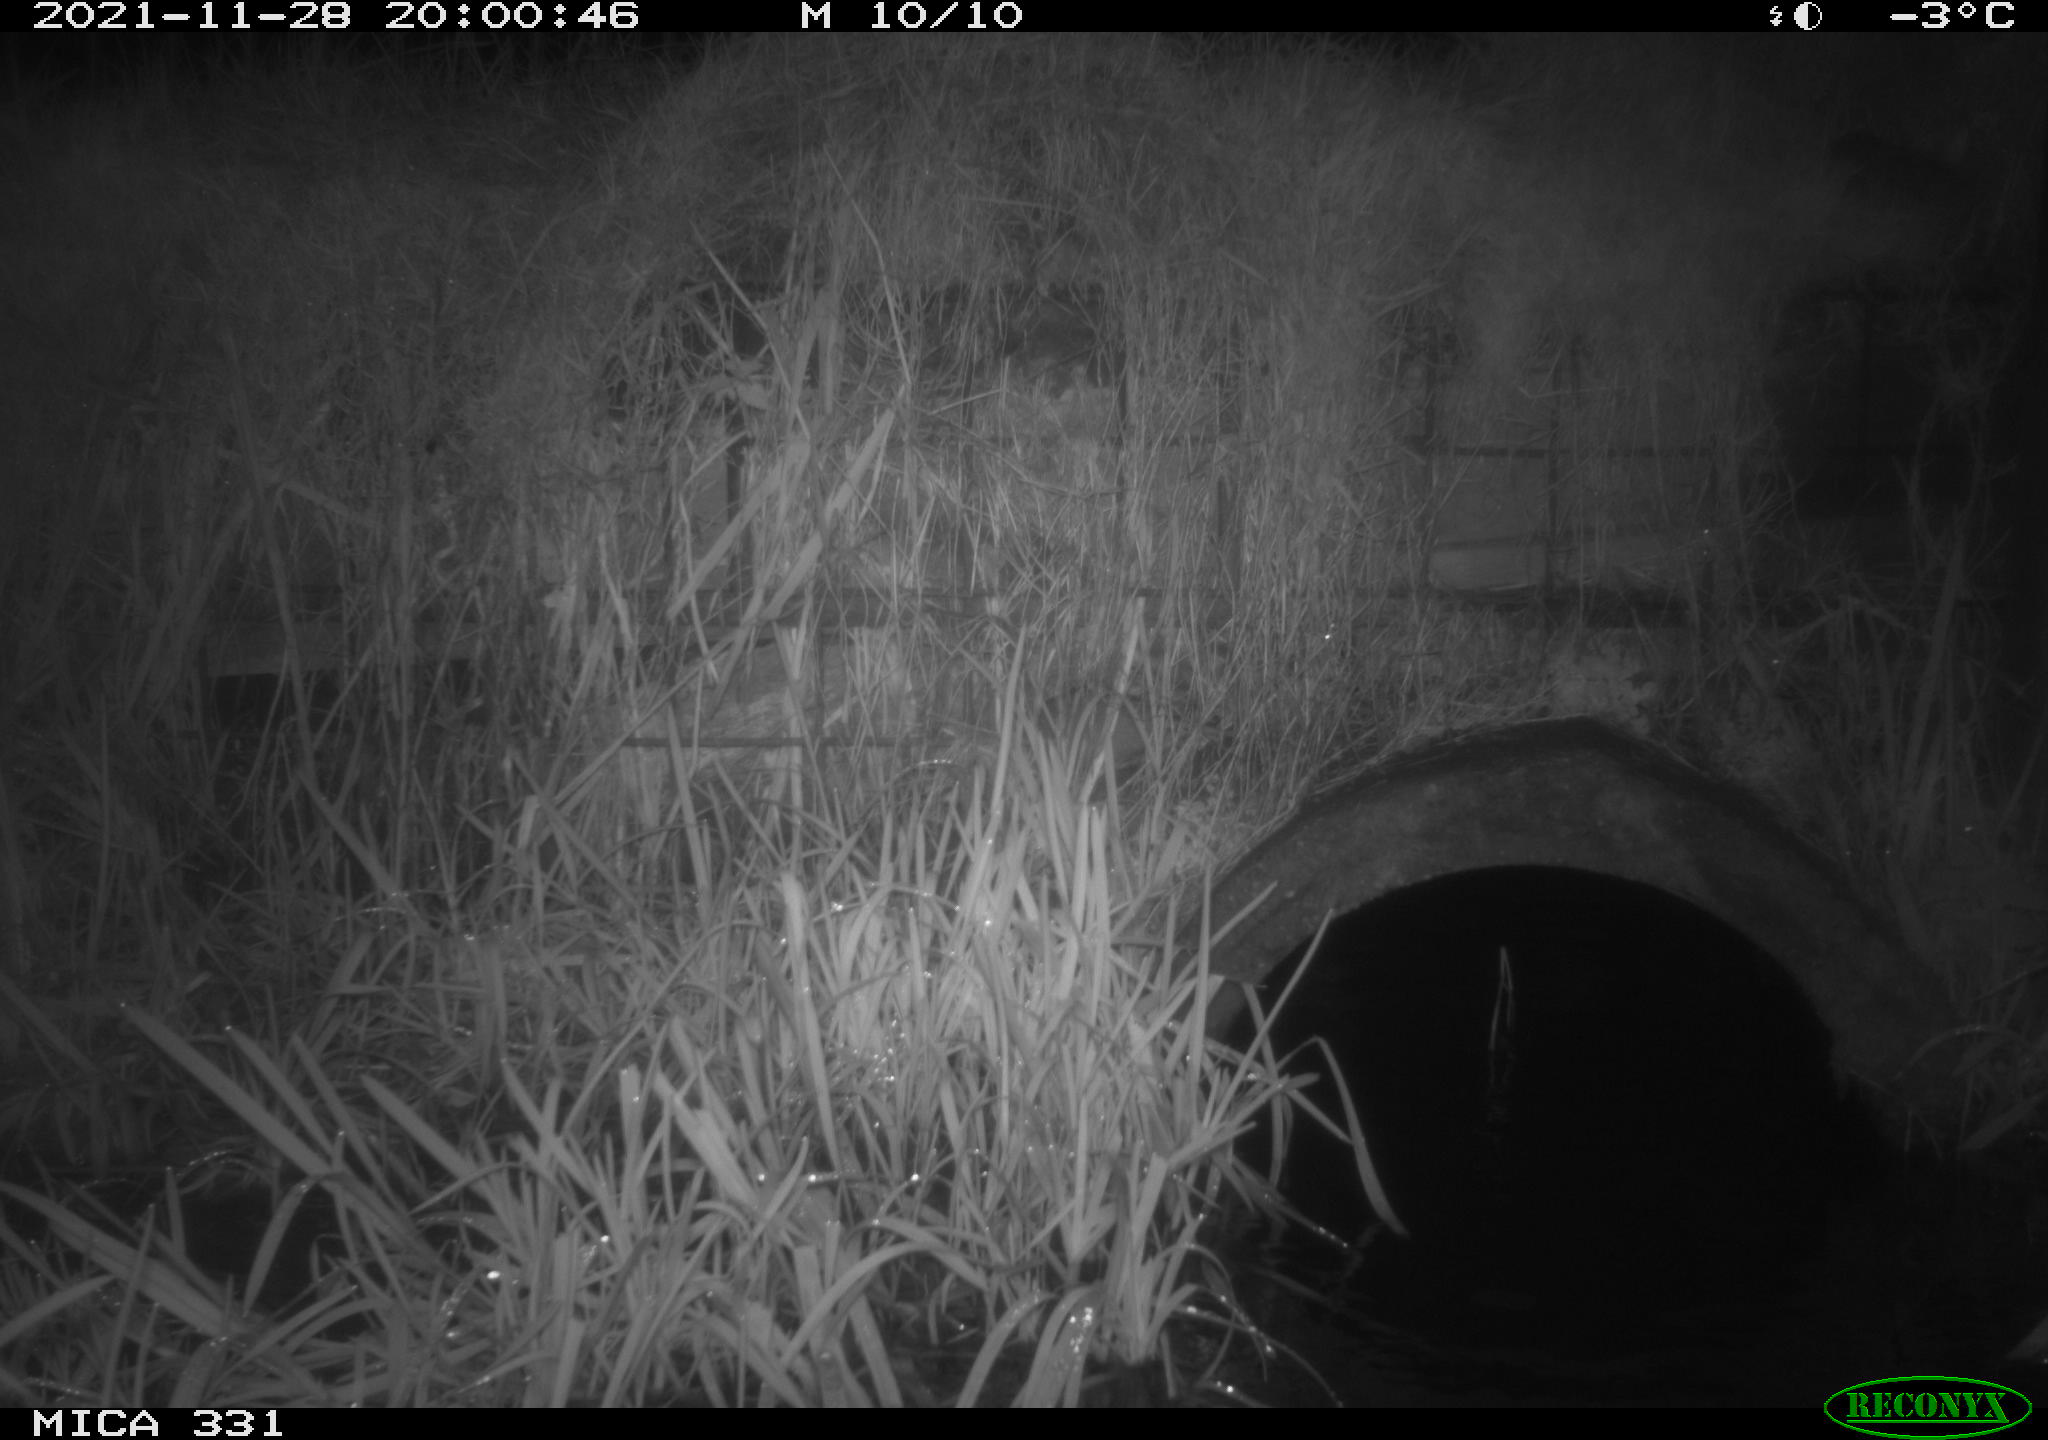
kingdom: Animalia
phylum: Chordata
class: Mammalia
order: Rodentia
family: Muridae
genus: Rattus
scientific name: Rattus norvegicus
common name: Brown rat
